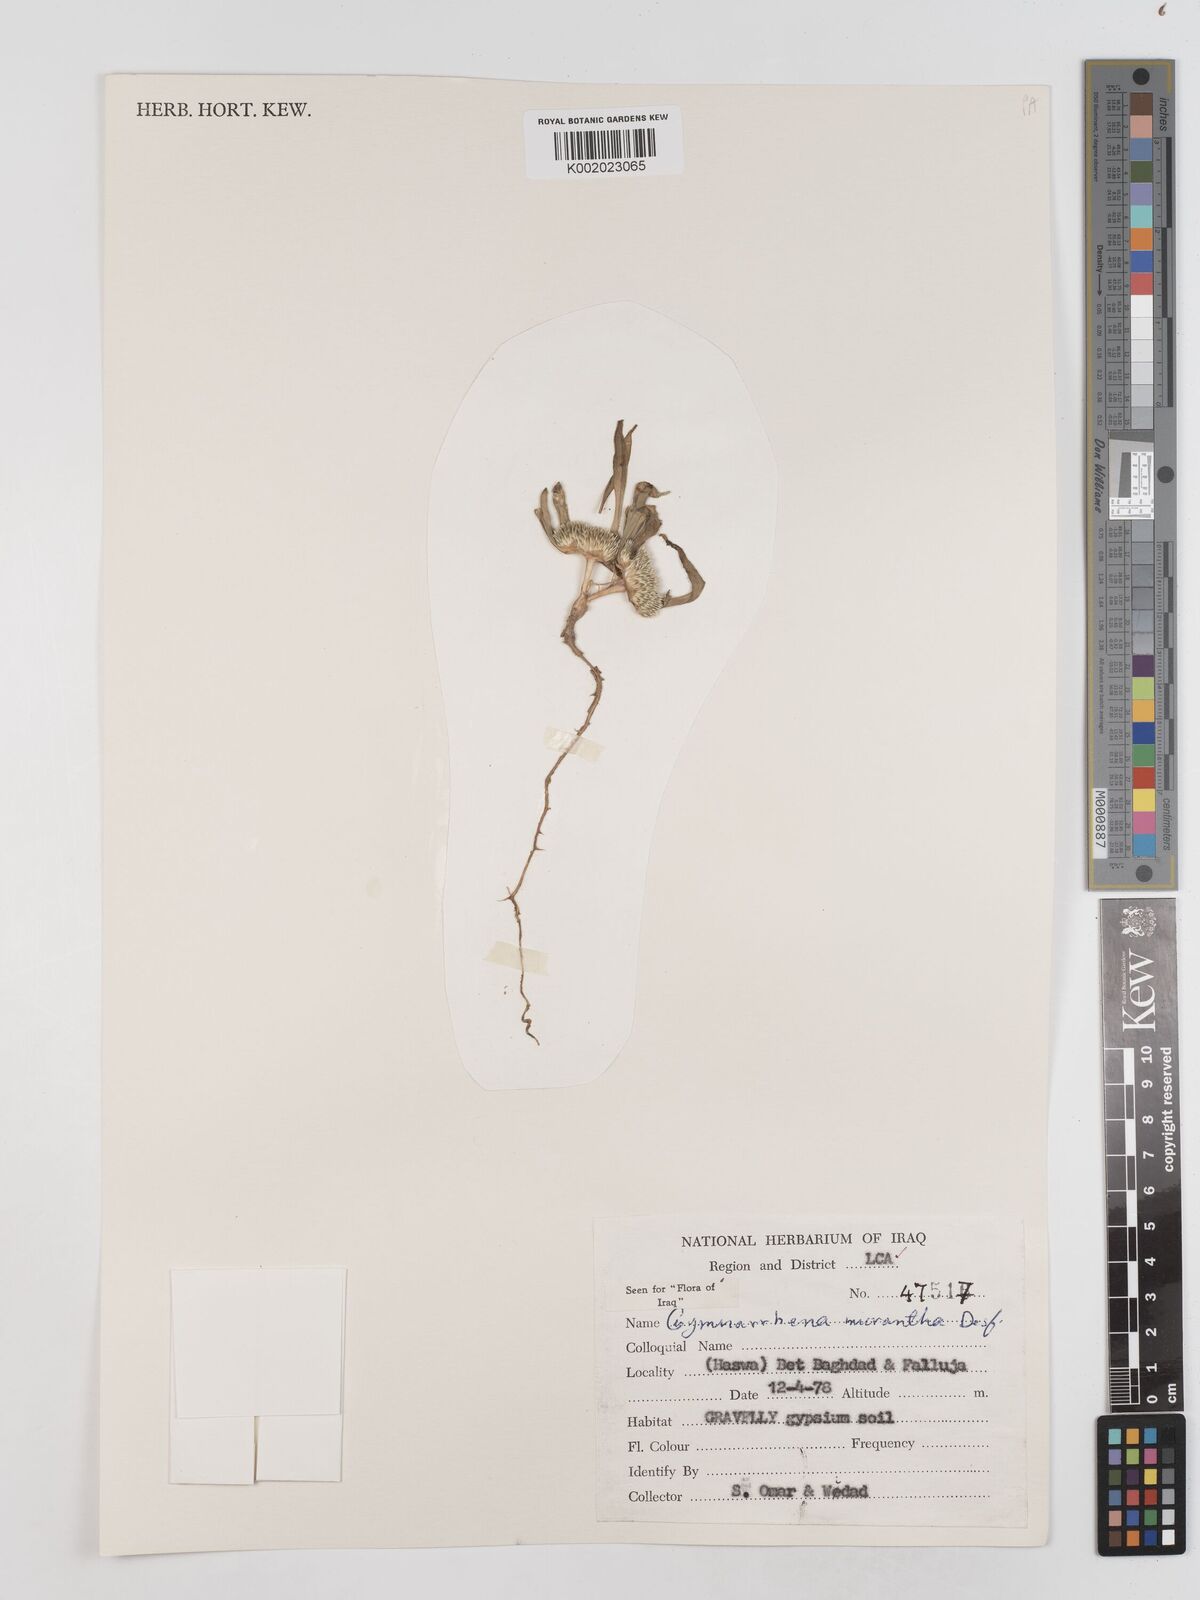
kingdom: Plantae
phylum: Tracheophyta
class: Magnoliopsida
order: Asterales
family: Asteraceae
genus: Gymnarrhena
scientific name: Gymnarrhena micrantha
